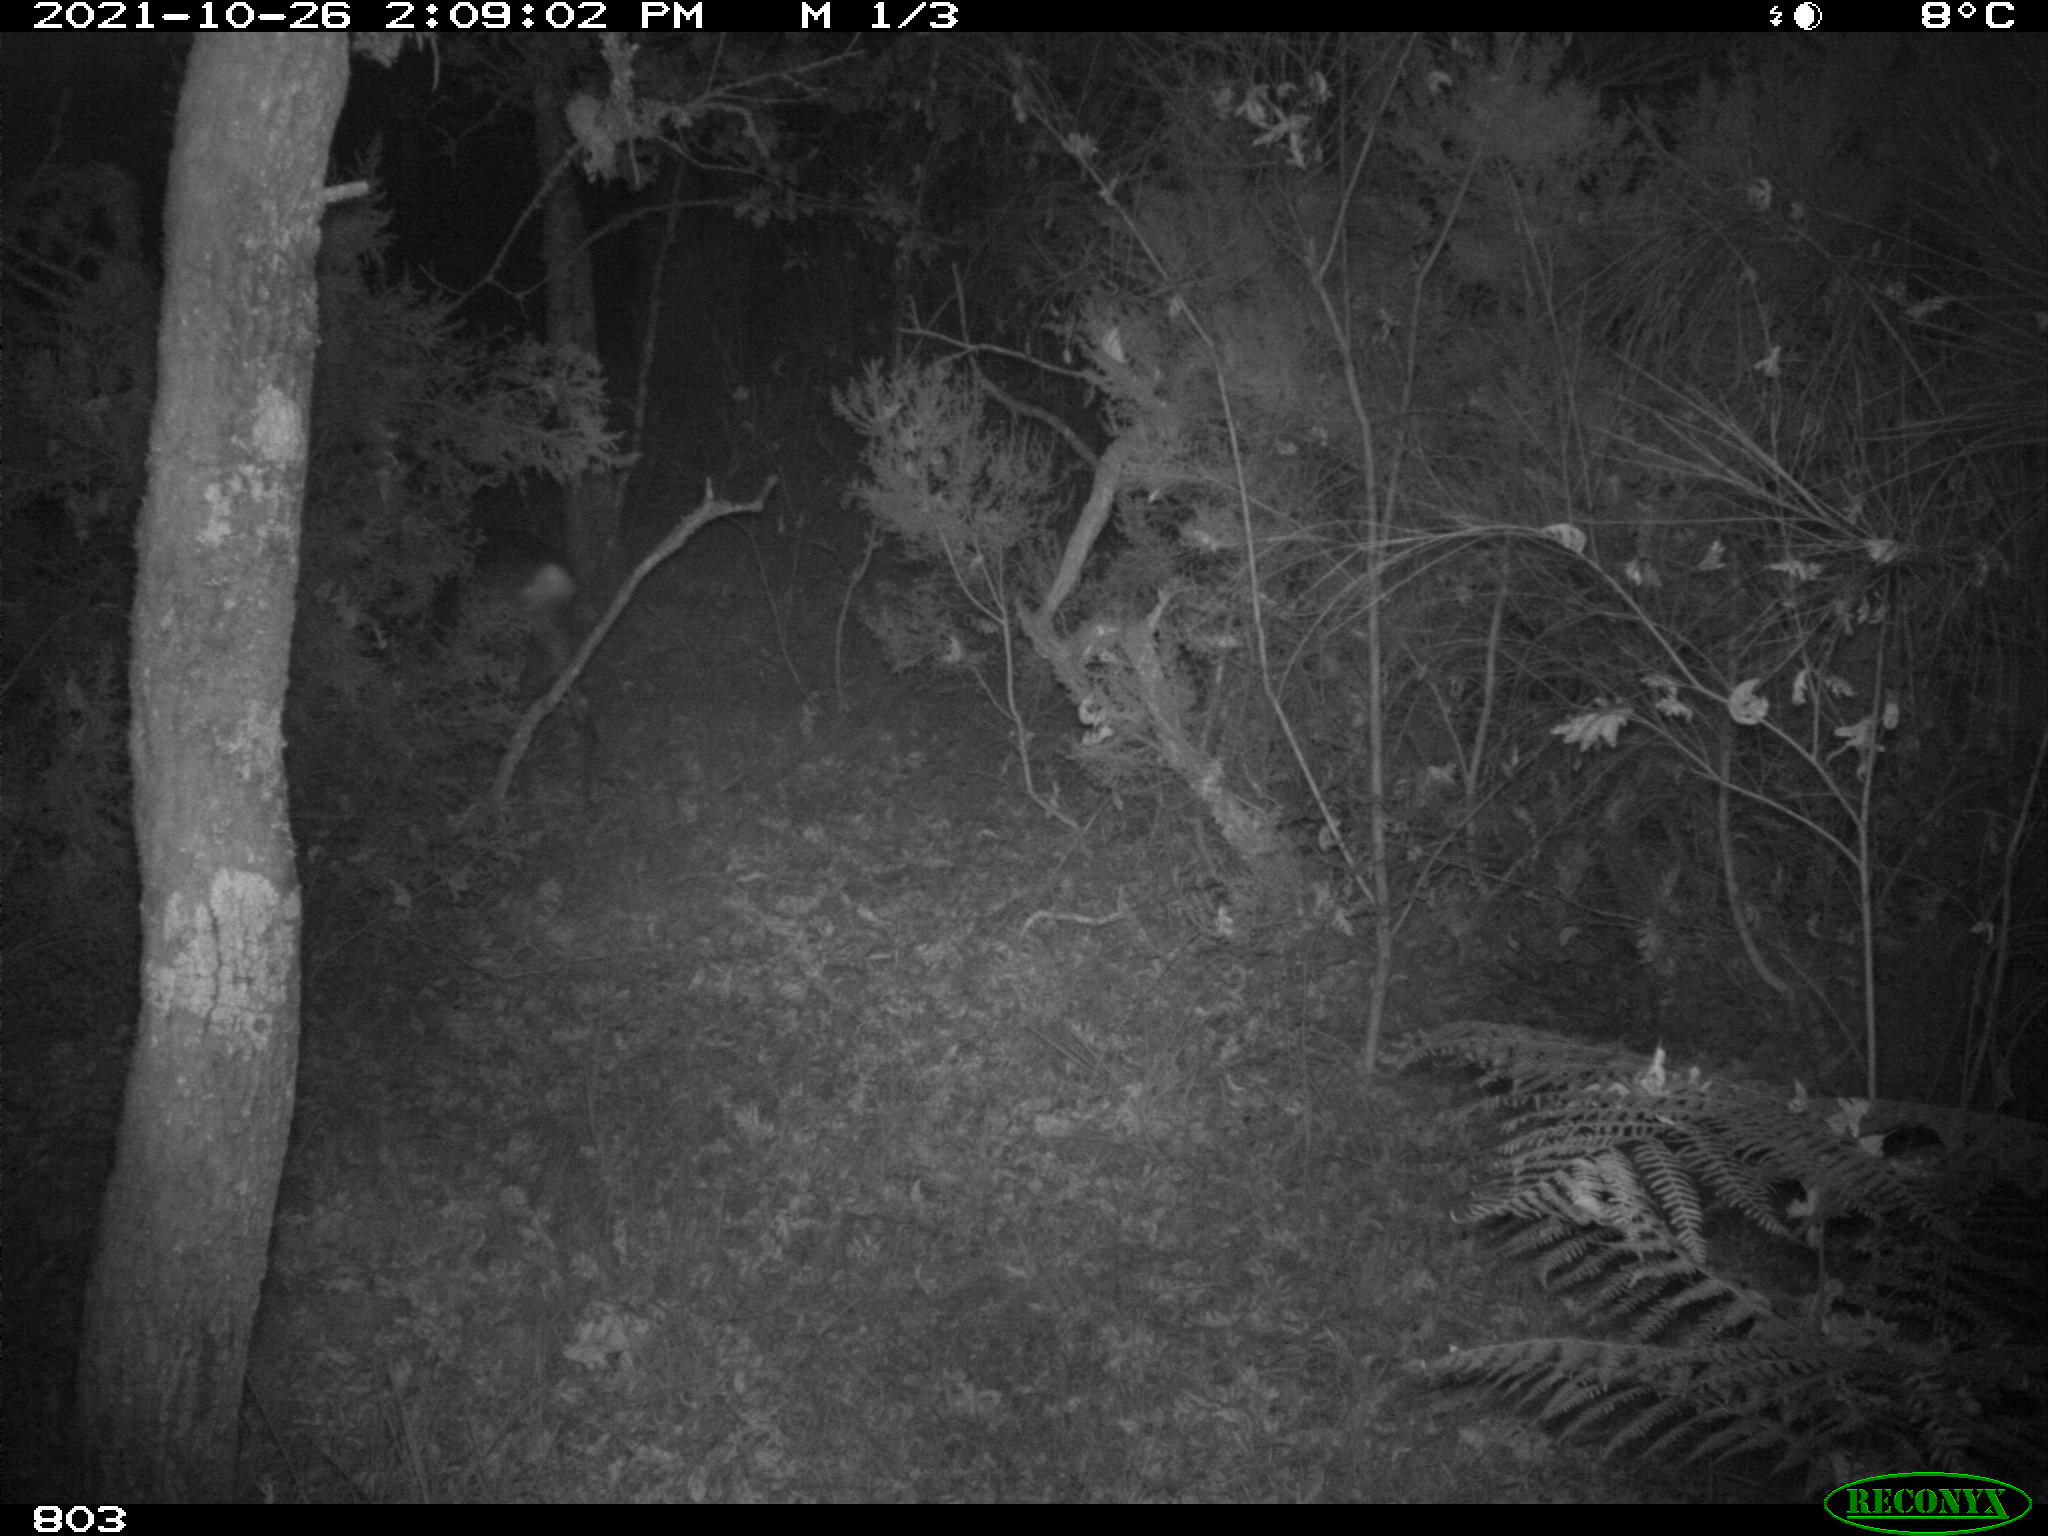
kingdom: Animalia
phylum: Chordata
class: Mammalia
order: Artiodactyla
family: Cervidae
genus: Capreolus
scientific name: Capreolus capreolus
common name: Western roe deer
